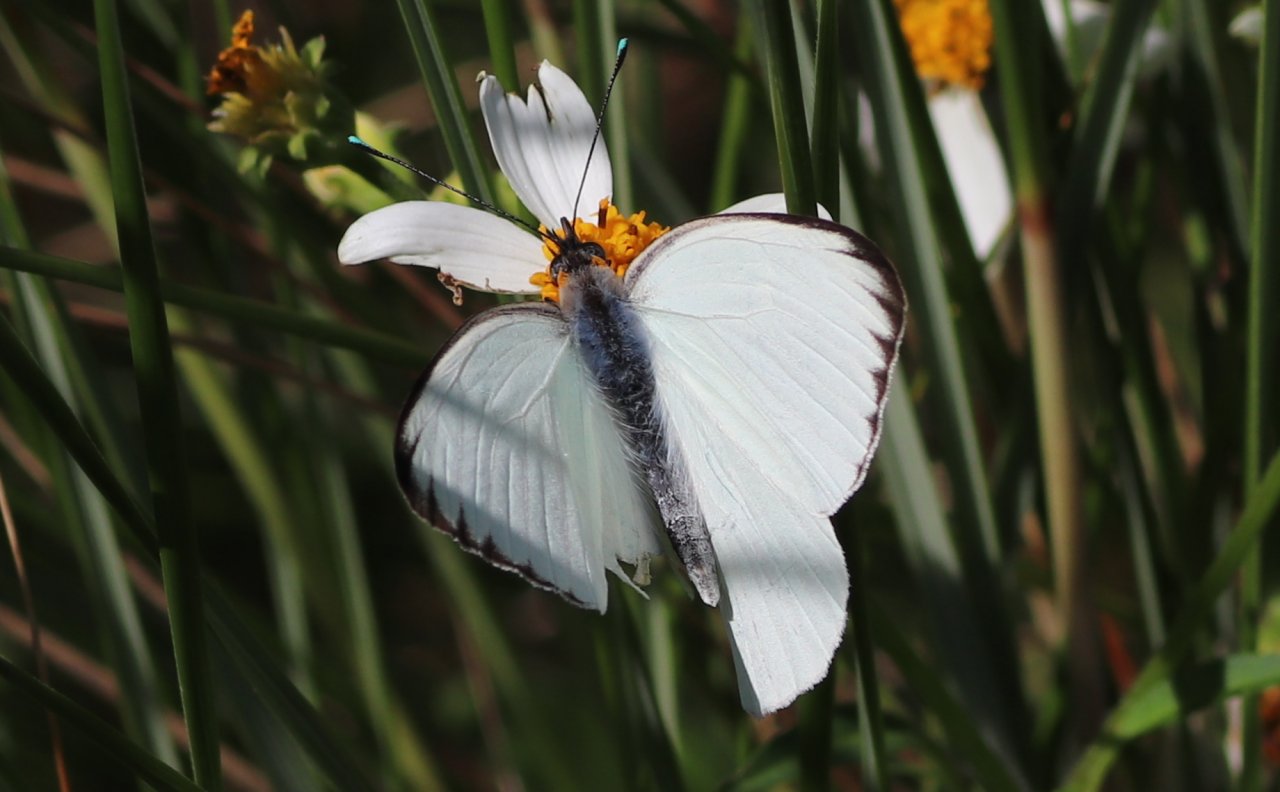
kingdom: Animalia
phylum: Arthropoda
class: Insecta
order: Lepidoptera
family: Pieridae
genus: Ascia
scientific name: Ascia monuste
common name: Great Southern White
